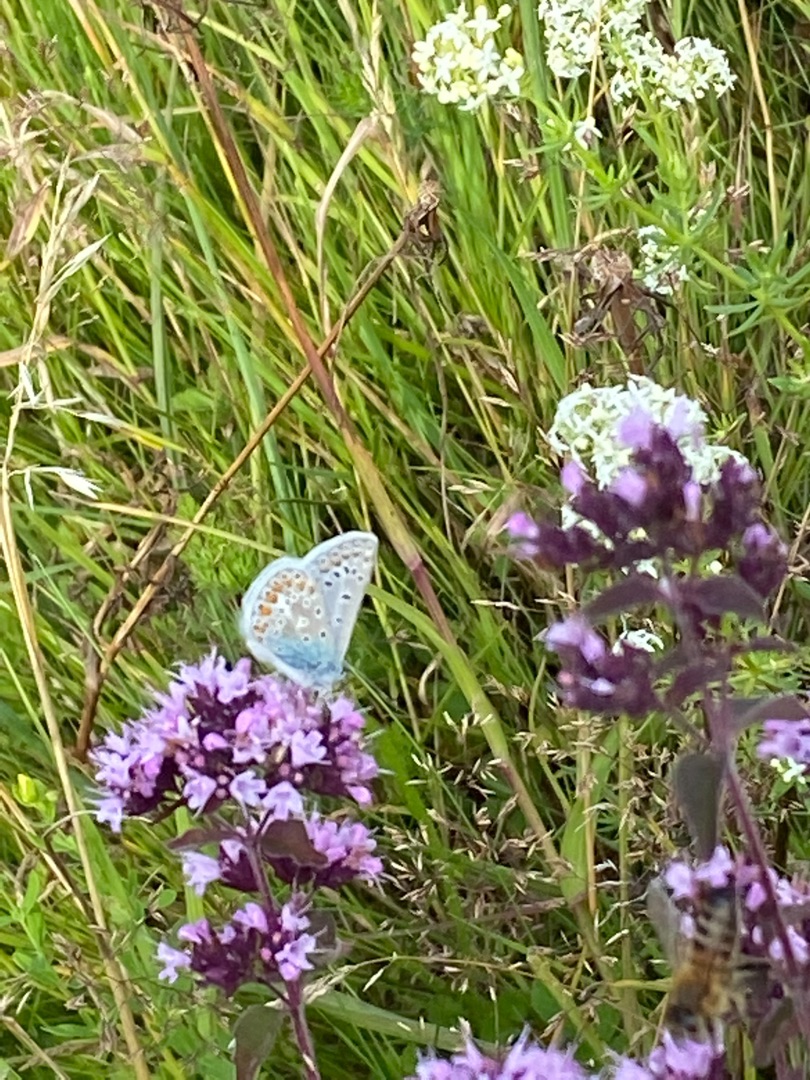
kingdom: Animalia
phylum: Arthropoda
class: Insecta
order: Lepidoptera
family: Lycaenidae
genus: Polyommatus
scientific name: Polyommatus icarus
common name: Almindelig blåfugl
